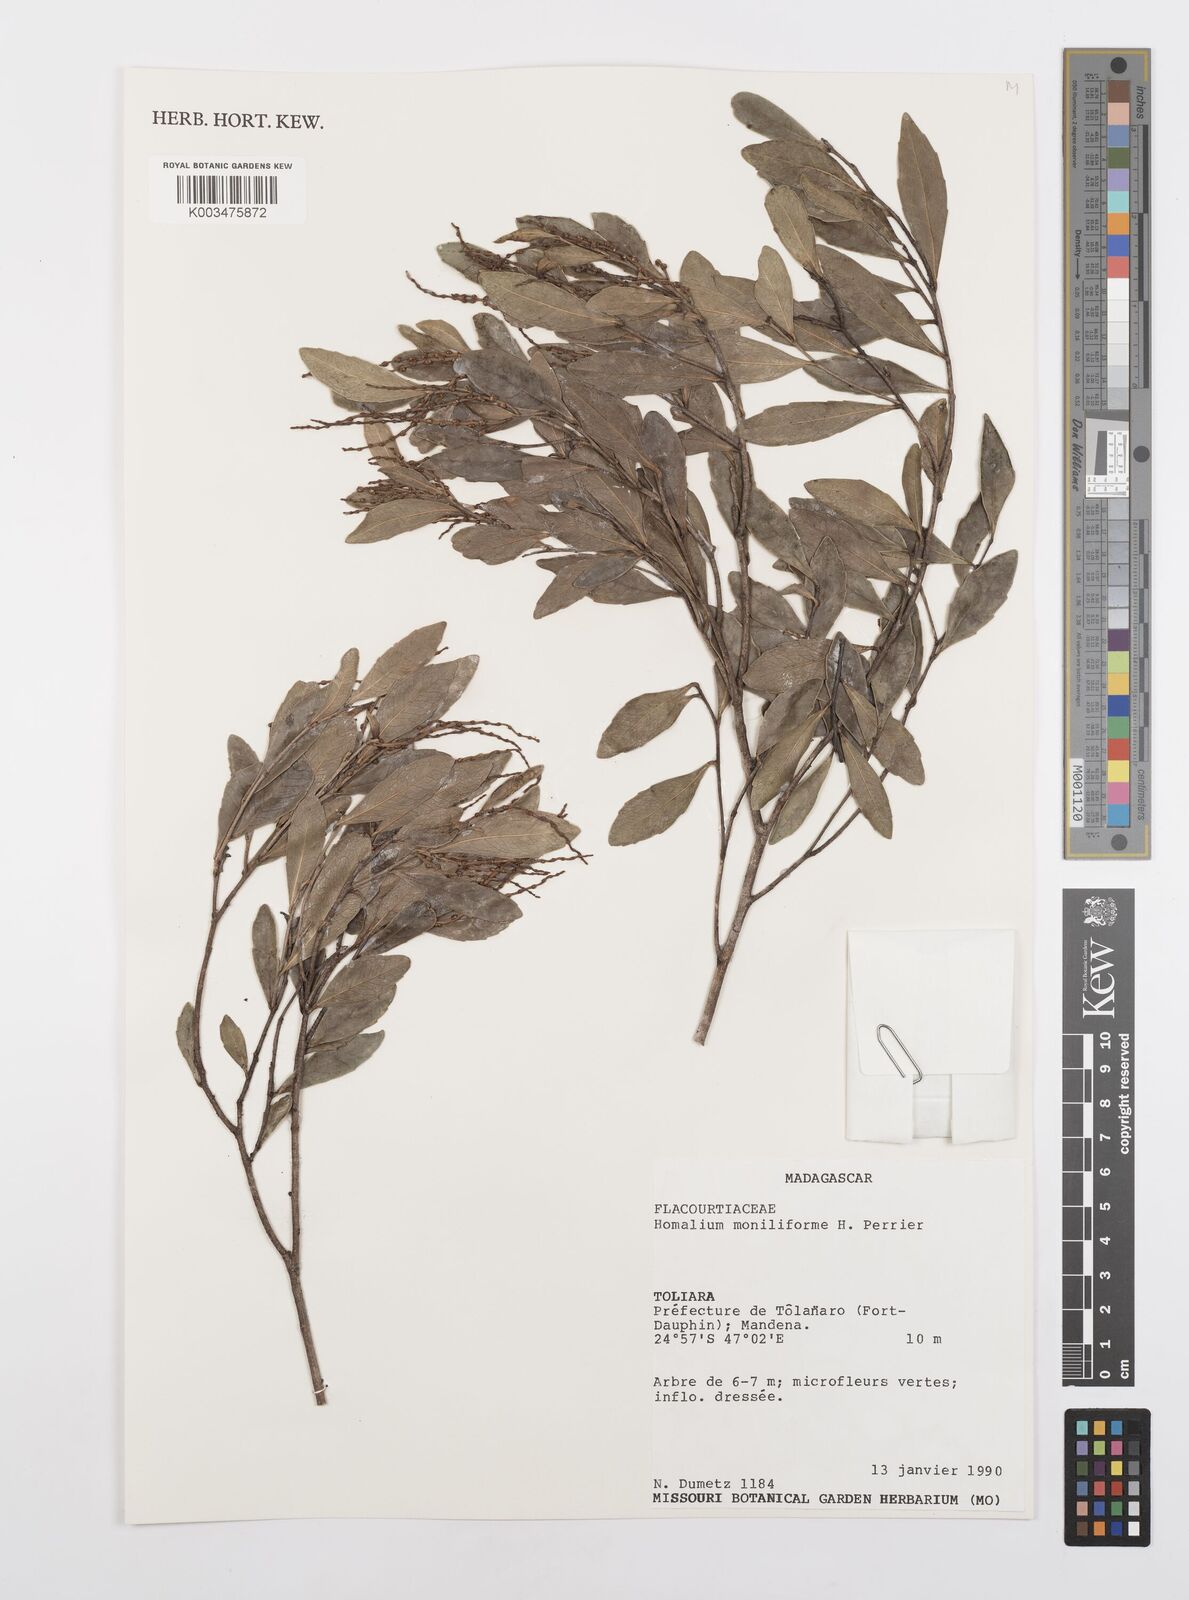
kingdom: Plantae
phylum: Tracheophyta
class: Magnoliopsida
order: Malpighiales
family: Salicaceae
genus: Homalium
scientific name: Homalium moniliforme
